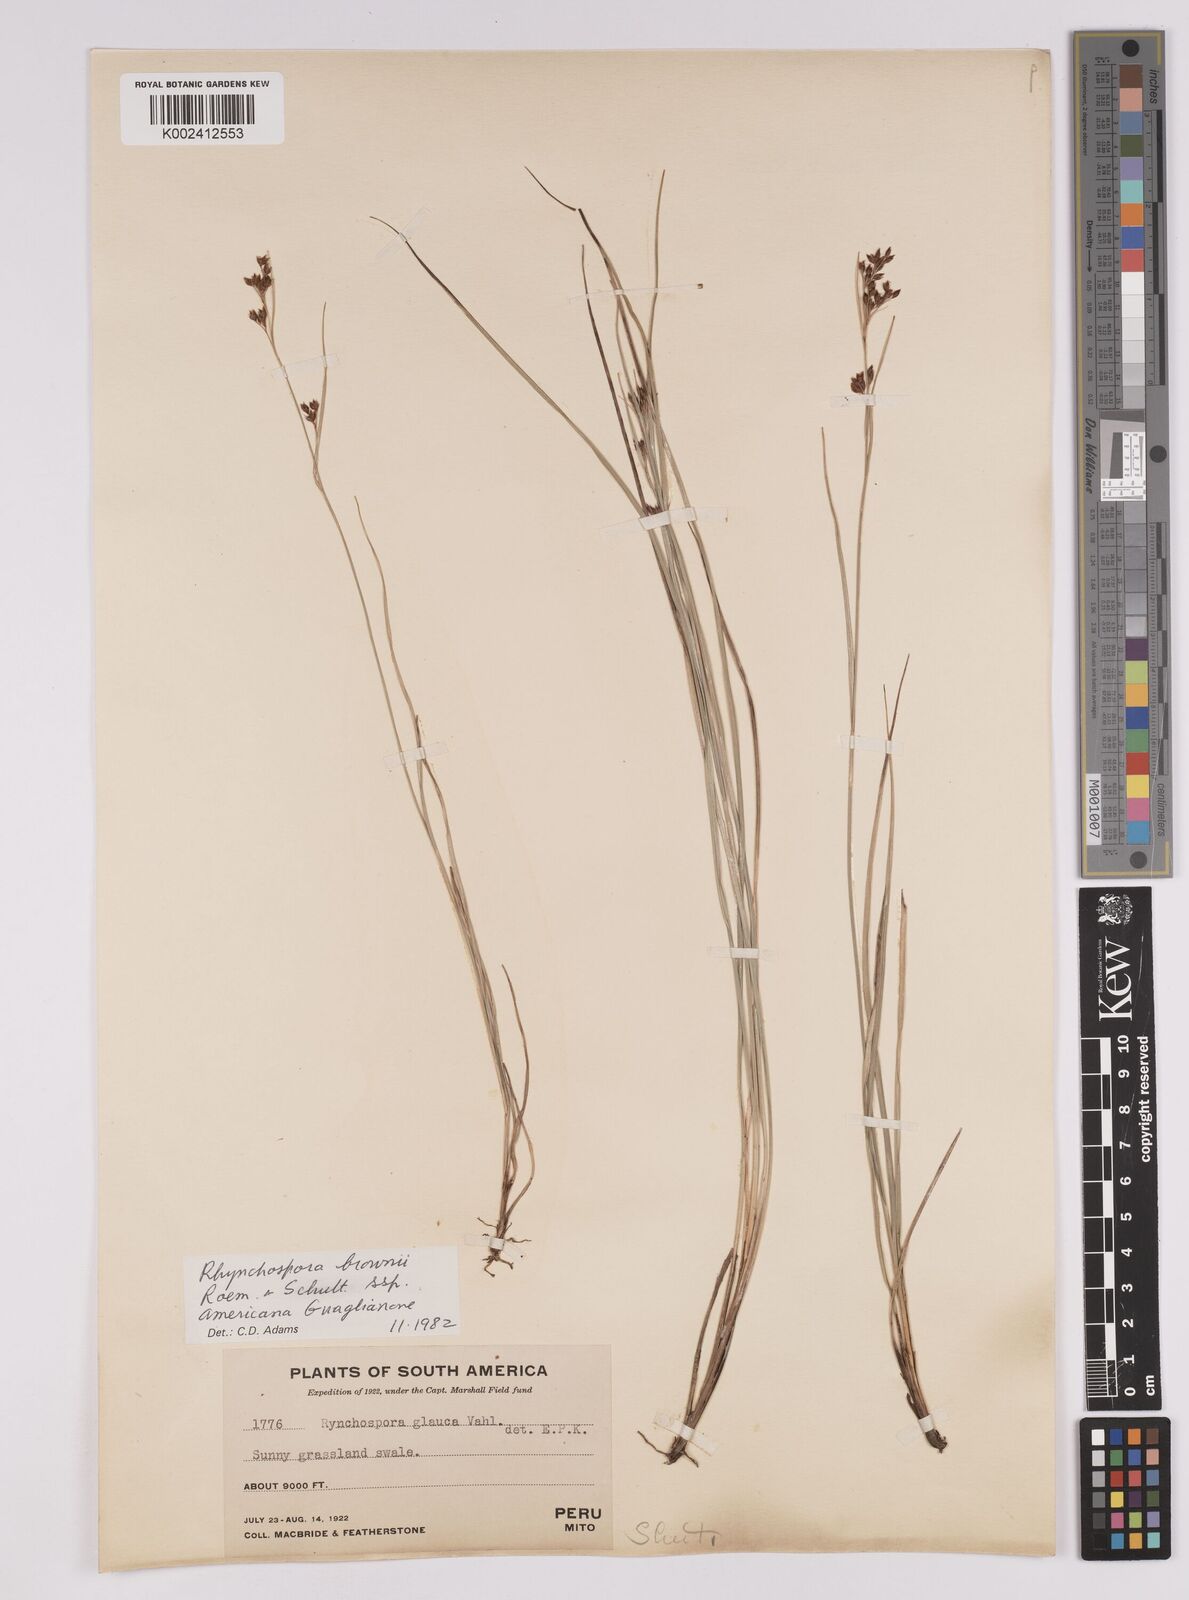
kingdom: Plantae
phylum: Tracheophyta
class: Liliopsida
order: Poales
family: Cyperaceae
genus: Rhynchospora
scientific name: Rhynchospora rugosa
